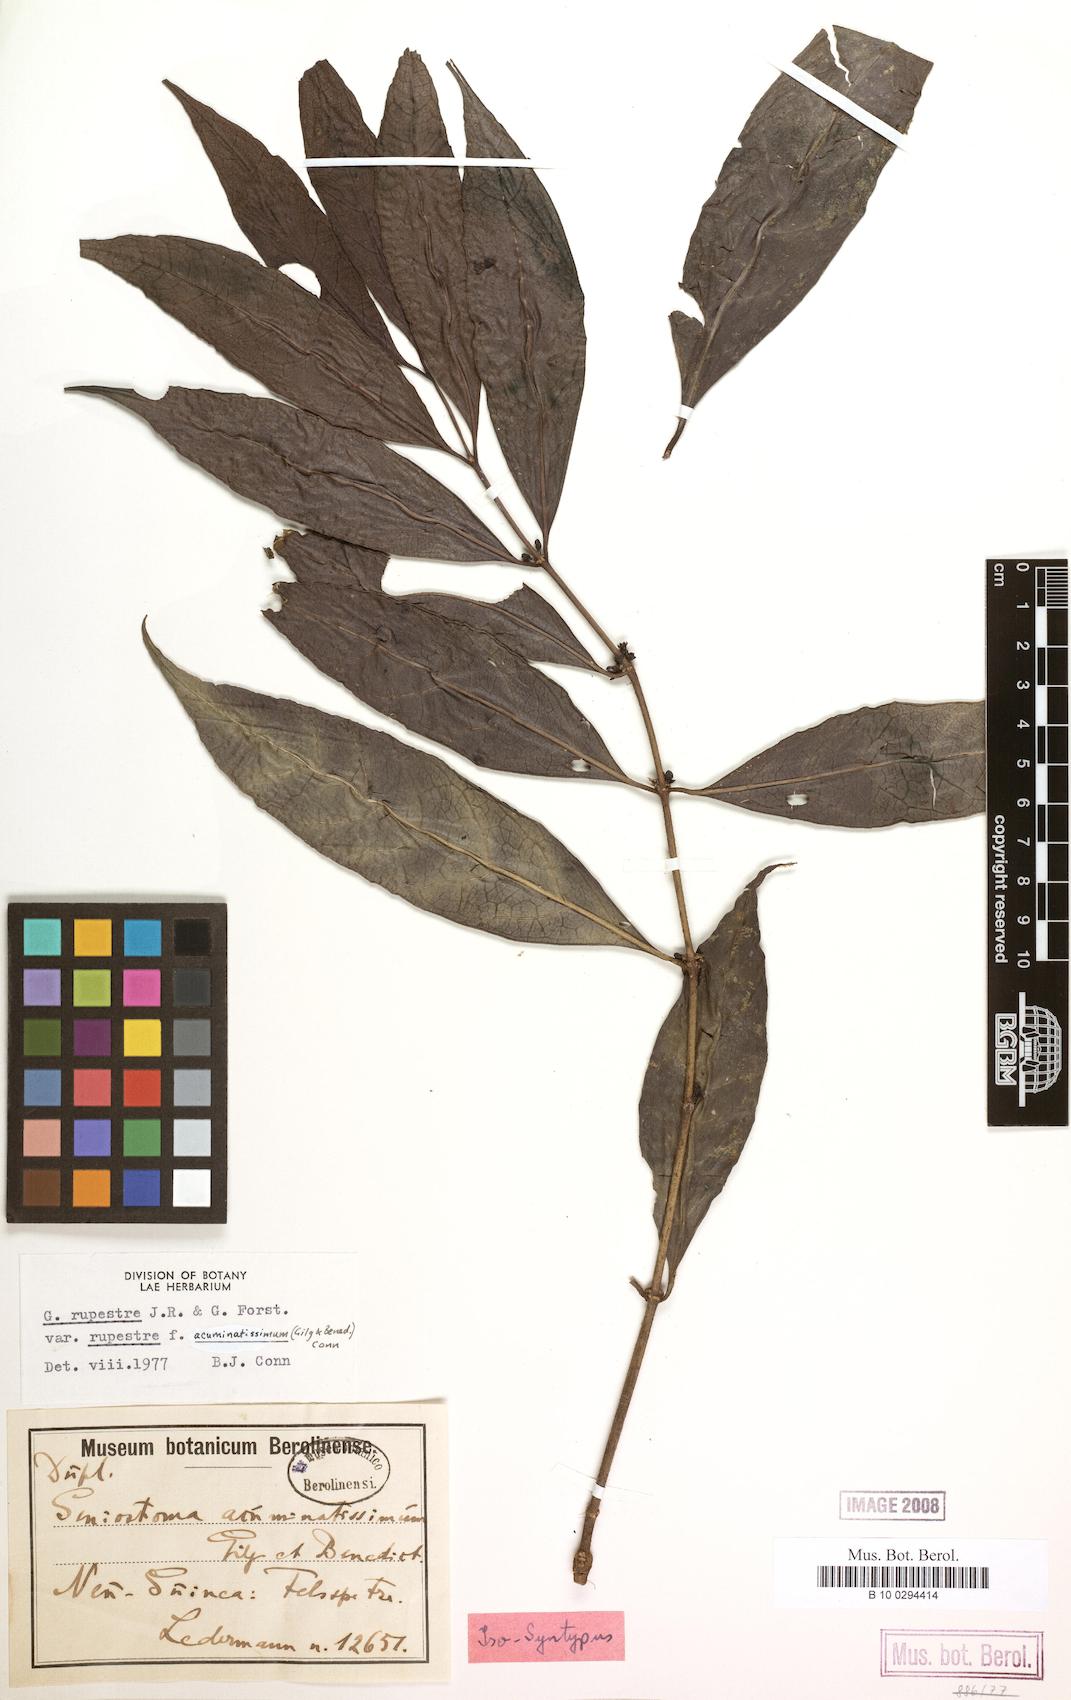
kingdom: Plantae
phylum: Tracheophyta
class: Magnoliopsida
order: Gentianales
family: Loganiaceae
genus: Geniostoma
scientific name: Geniostoma rupestre
